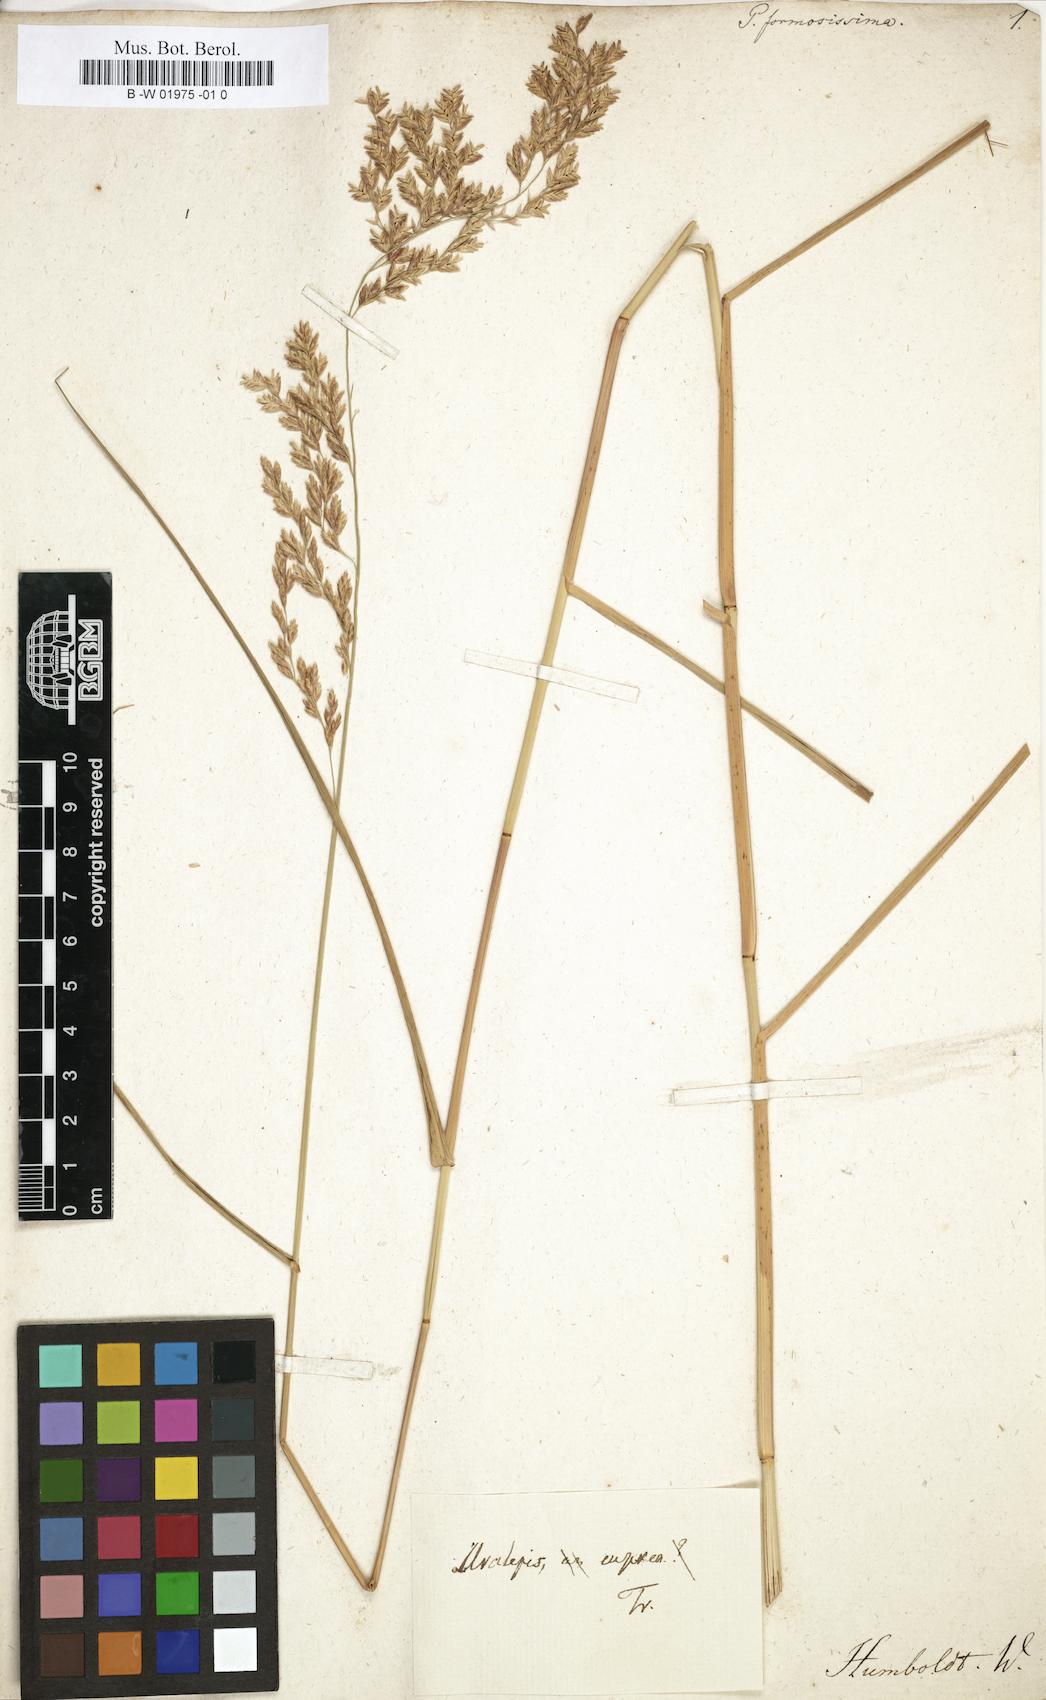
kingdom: Plantae
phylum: Tracheophyta
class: Liliopsida
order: Poales
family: Poaceae
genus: Poa
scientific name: Poa formosissima
